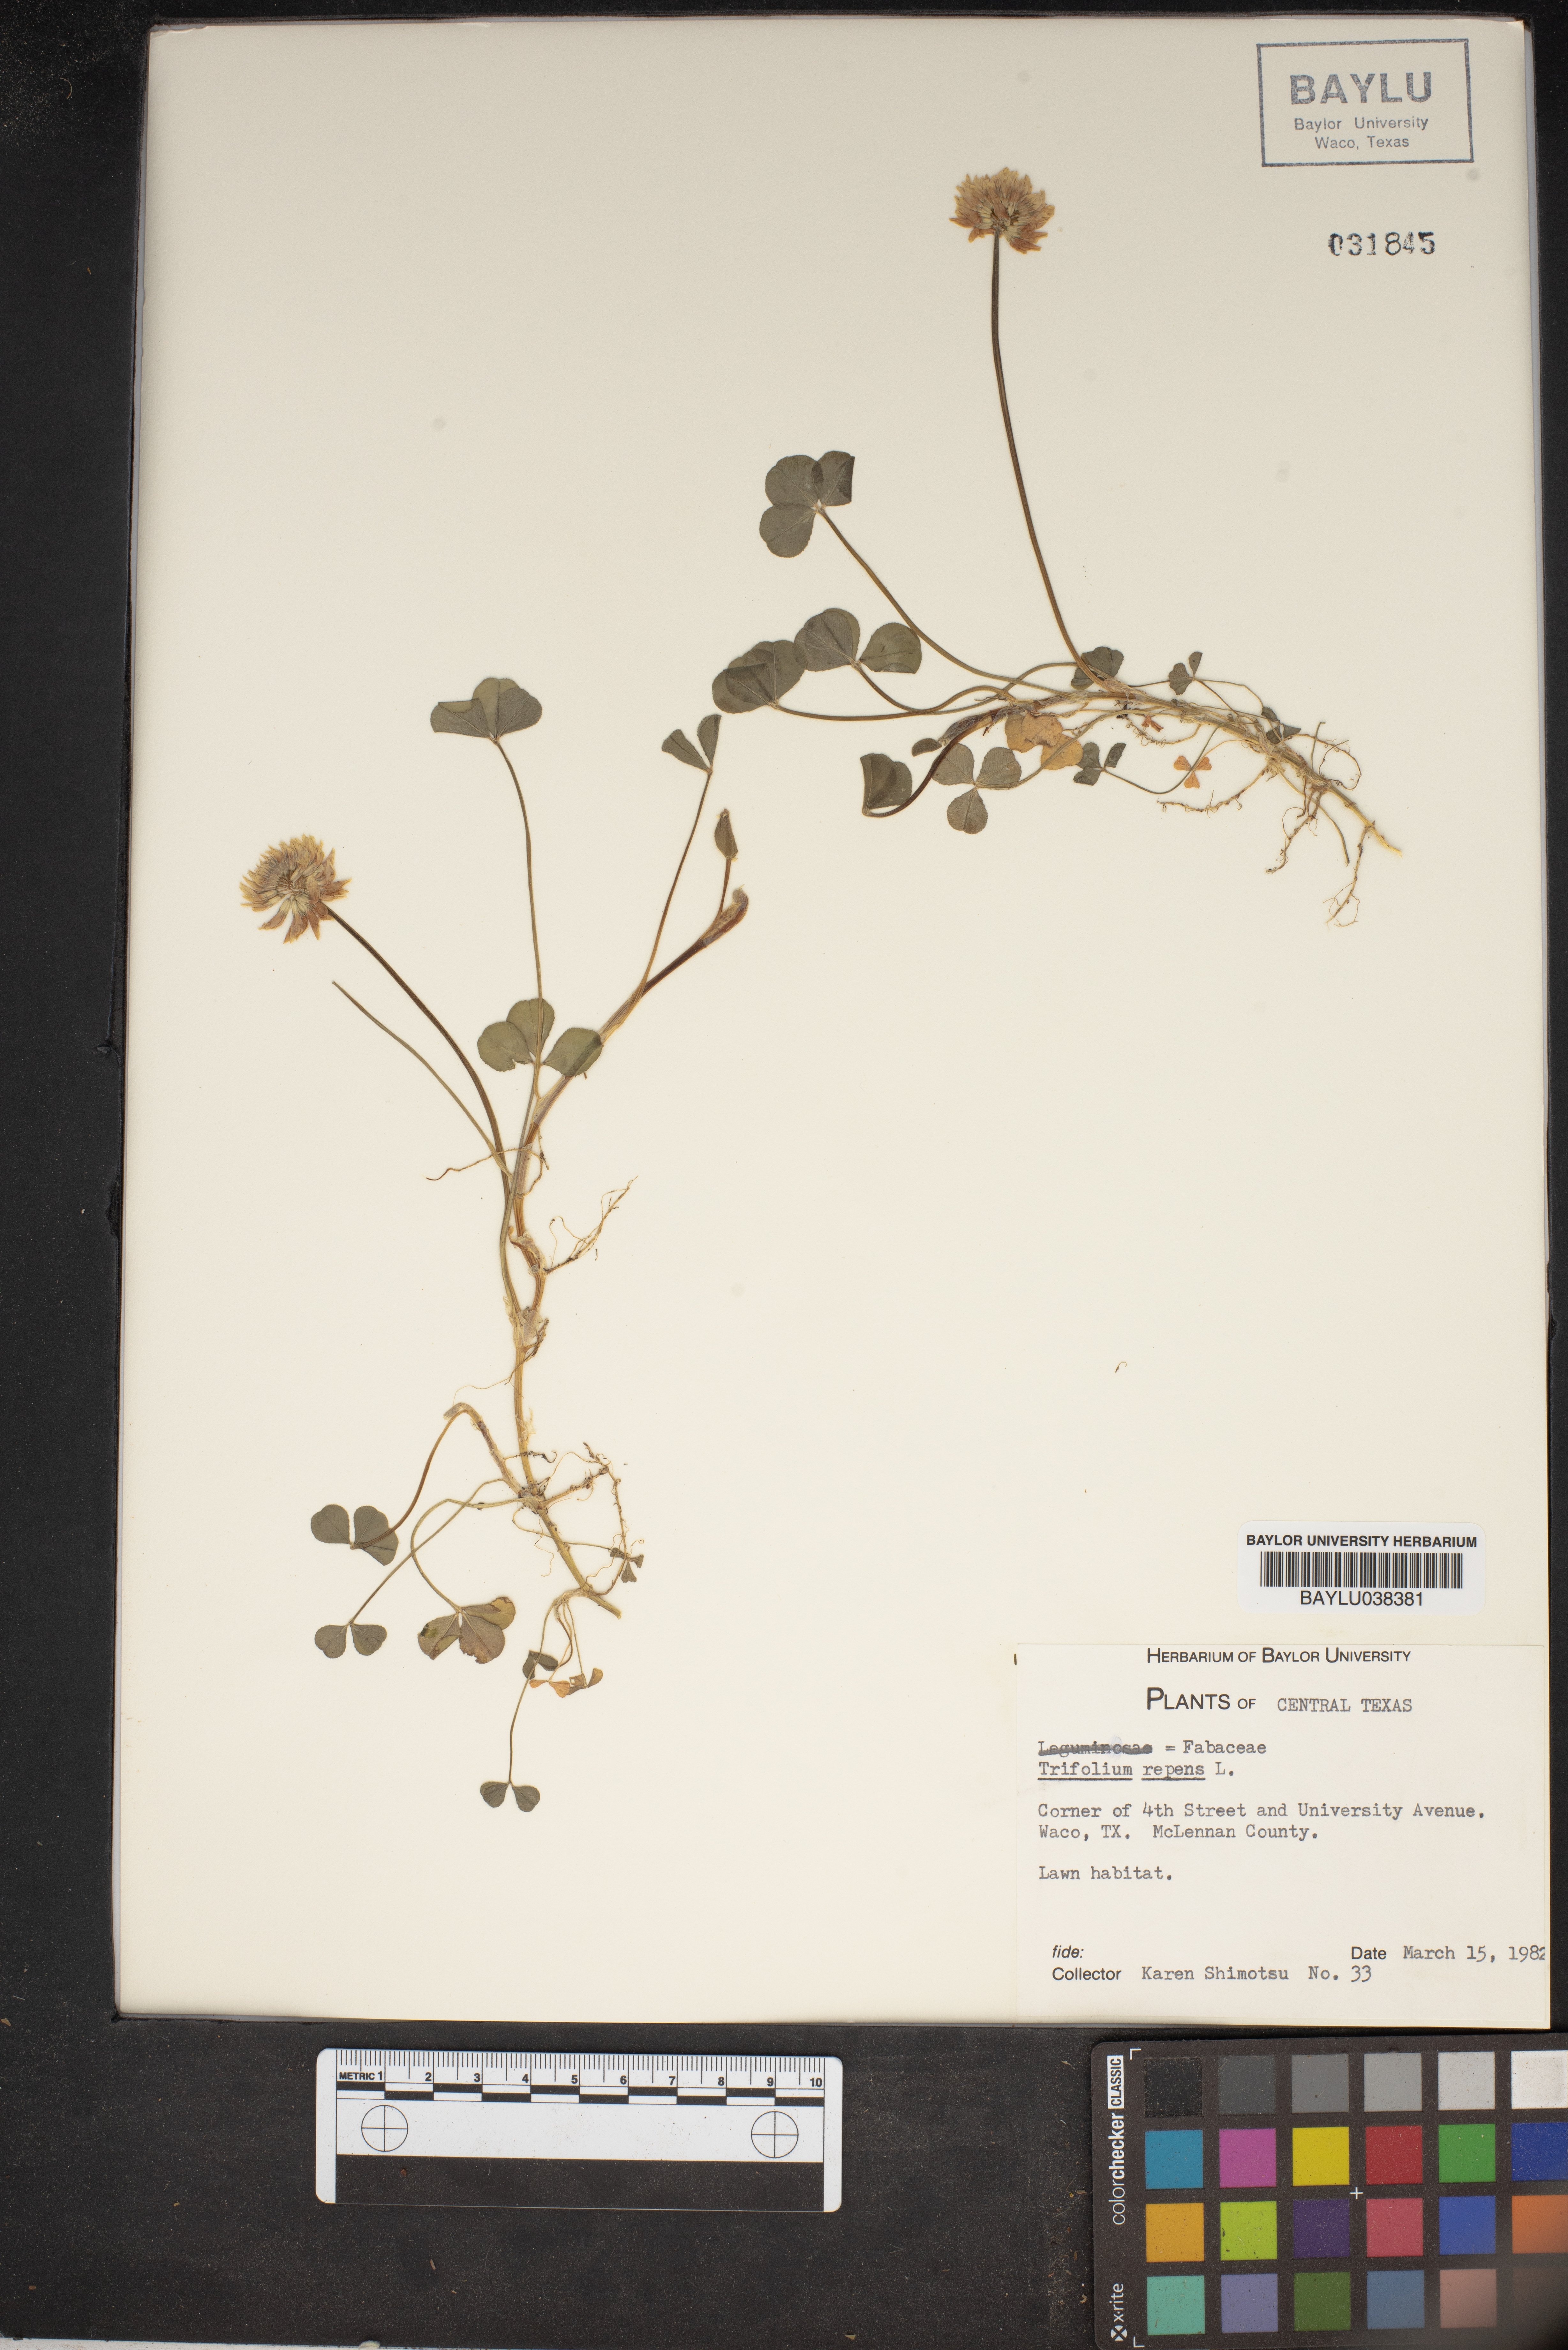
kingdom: Plantae
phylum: Tracheophyta
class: Magnoliopsida
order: Fabales
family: Fabaceae
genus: Trifolium
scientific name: Trifolium repens
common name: White clover
